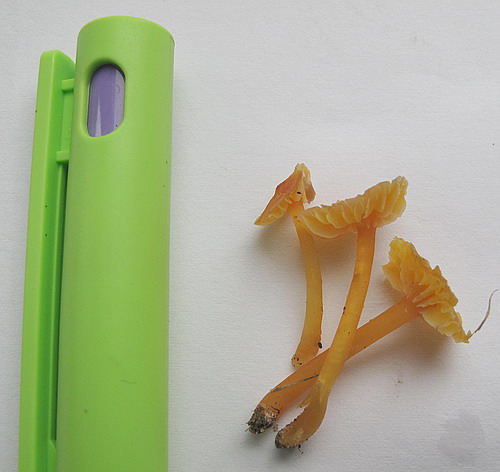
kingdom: Fungi
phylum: Basidiomycota
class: Agaricomycetes
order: Agaricales
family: Hygrophoraceae
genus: Hygrocybe
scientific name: Hygrocybe
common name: vokshat
